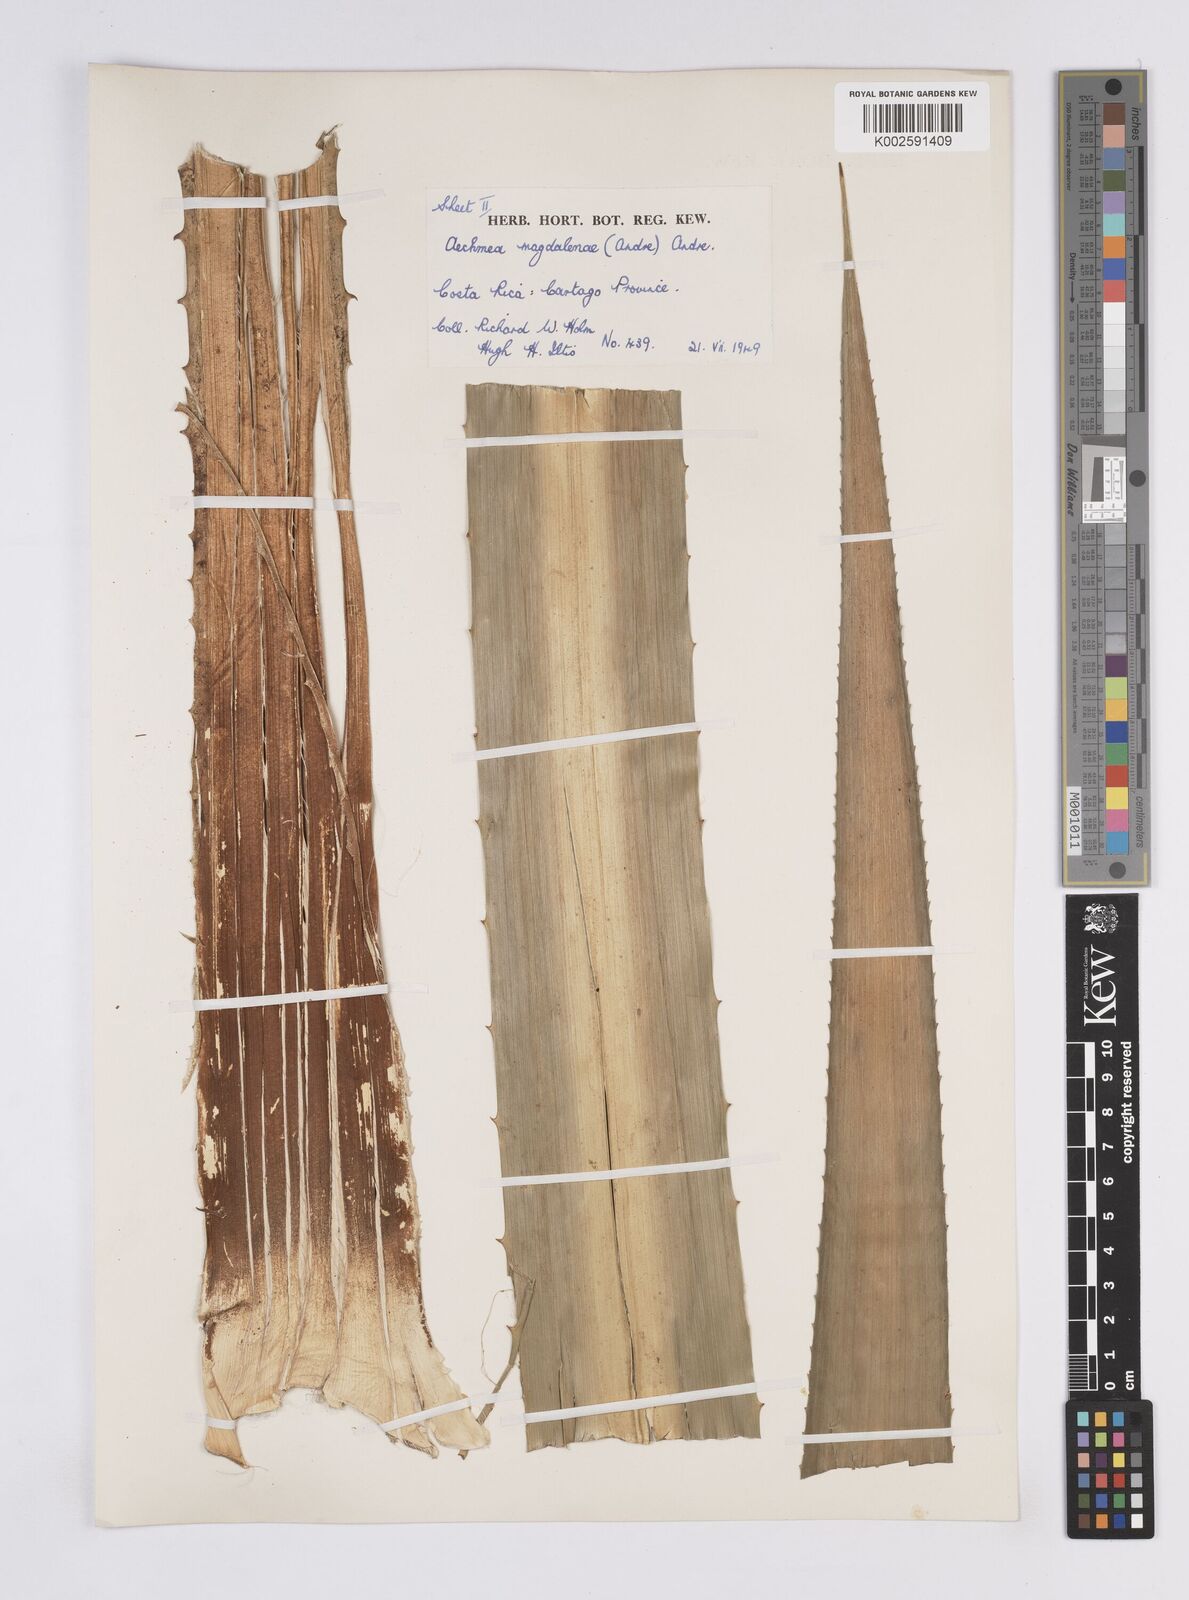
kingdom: Plantae
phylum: Tracheophyta
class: Liliopsida
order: Poales
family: Bromeliaceae
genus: Aechmea
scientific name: Aechmea magdalenae
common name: Arghan
